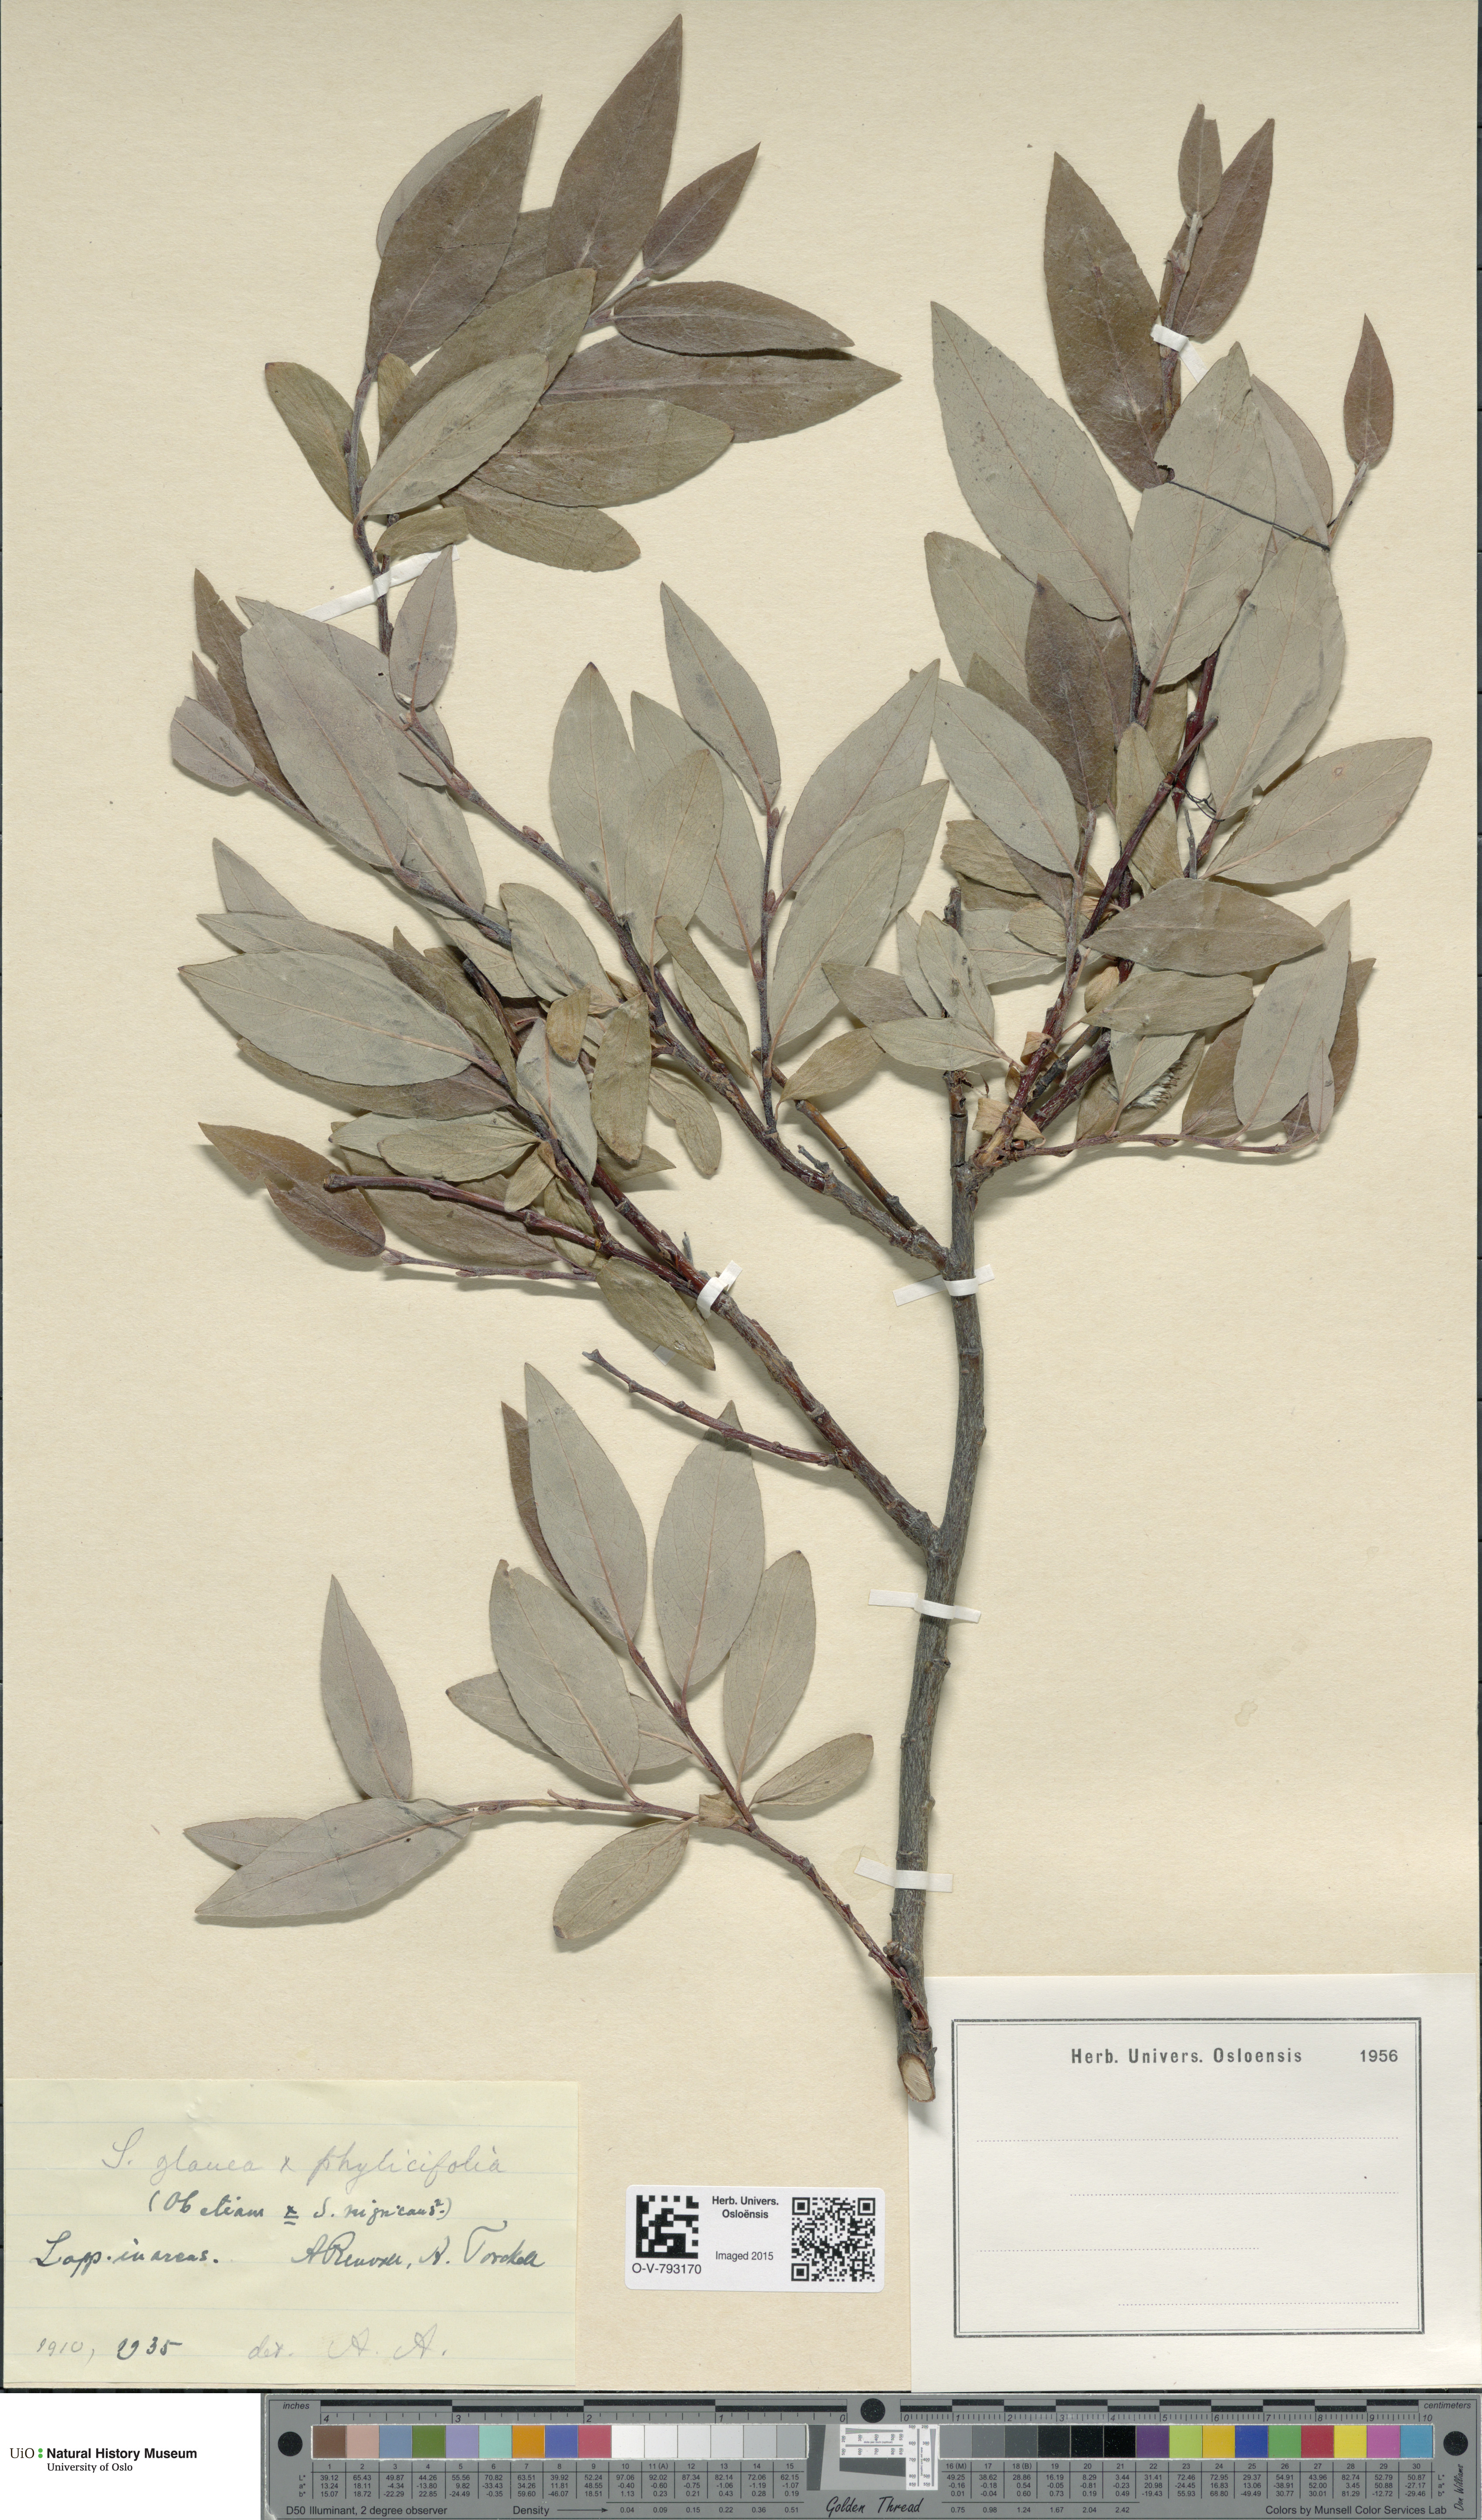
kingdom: Plantae
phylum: Tracheophyta
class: Magnoliopsida
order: Malpighiales
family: Salicaceae
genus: Salix
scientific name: Salix
